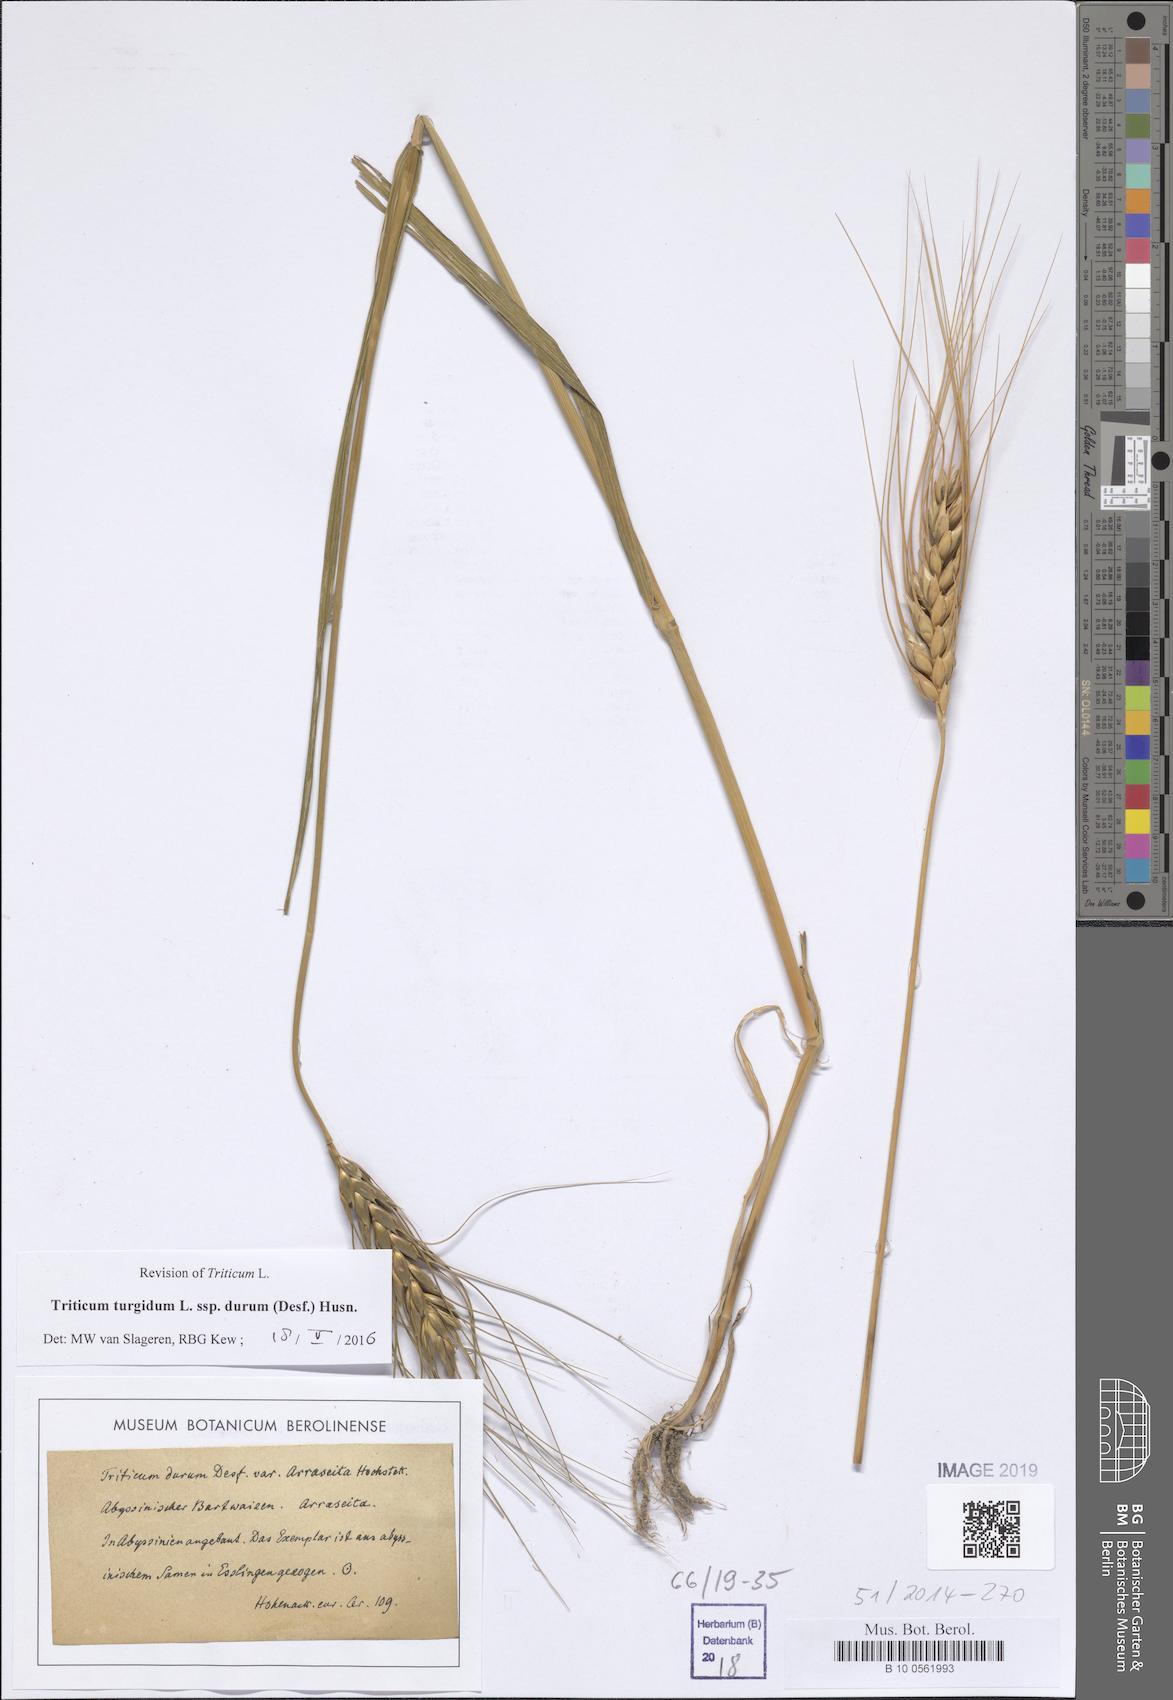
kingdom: Plantae
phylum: Tracheophyta
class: Liliopsida
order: Poales
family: Poaceae
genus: Triticum
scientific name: Triticum turgidum
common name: Rivet wheat
